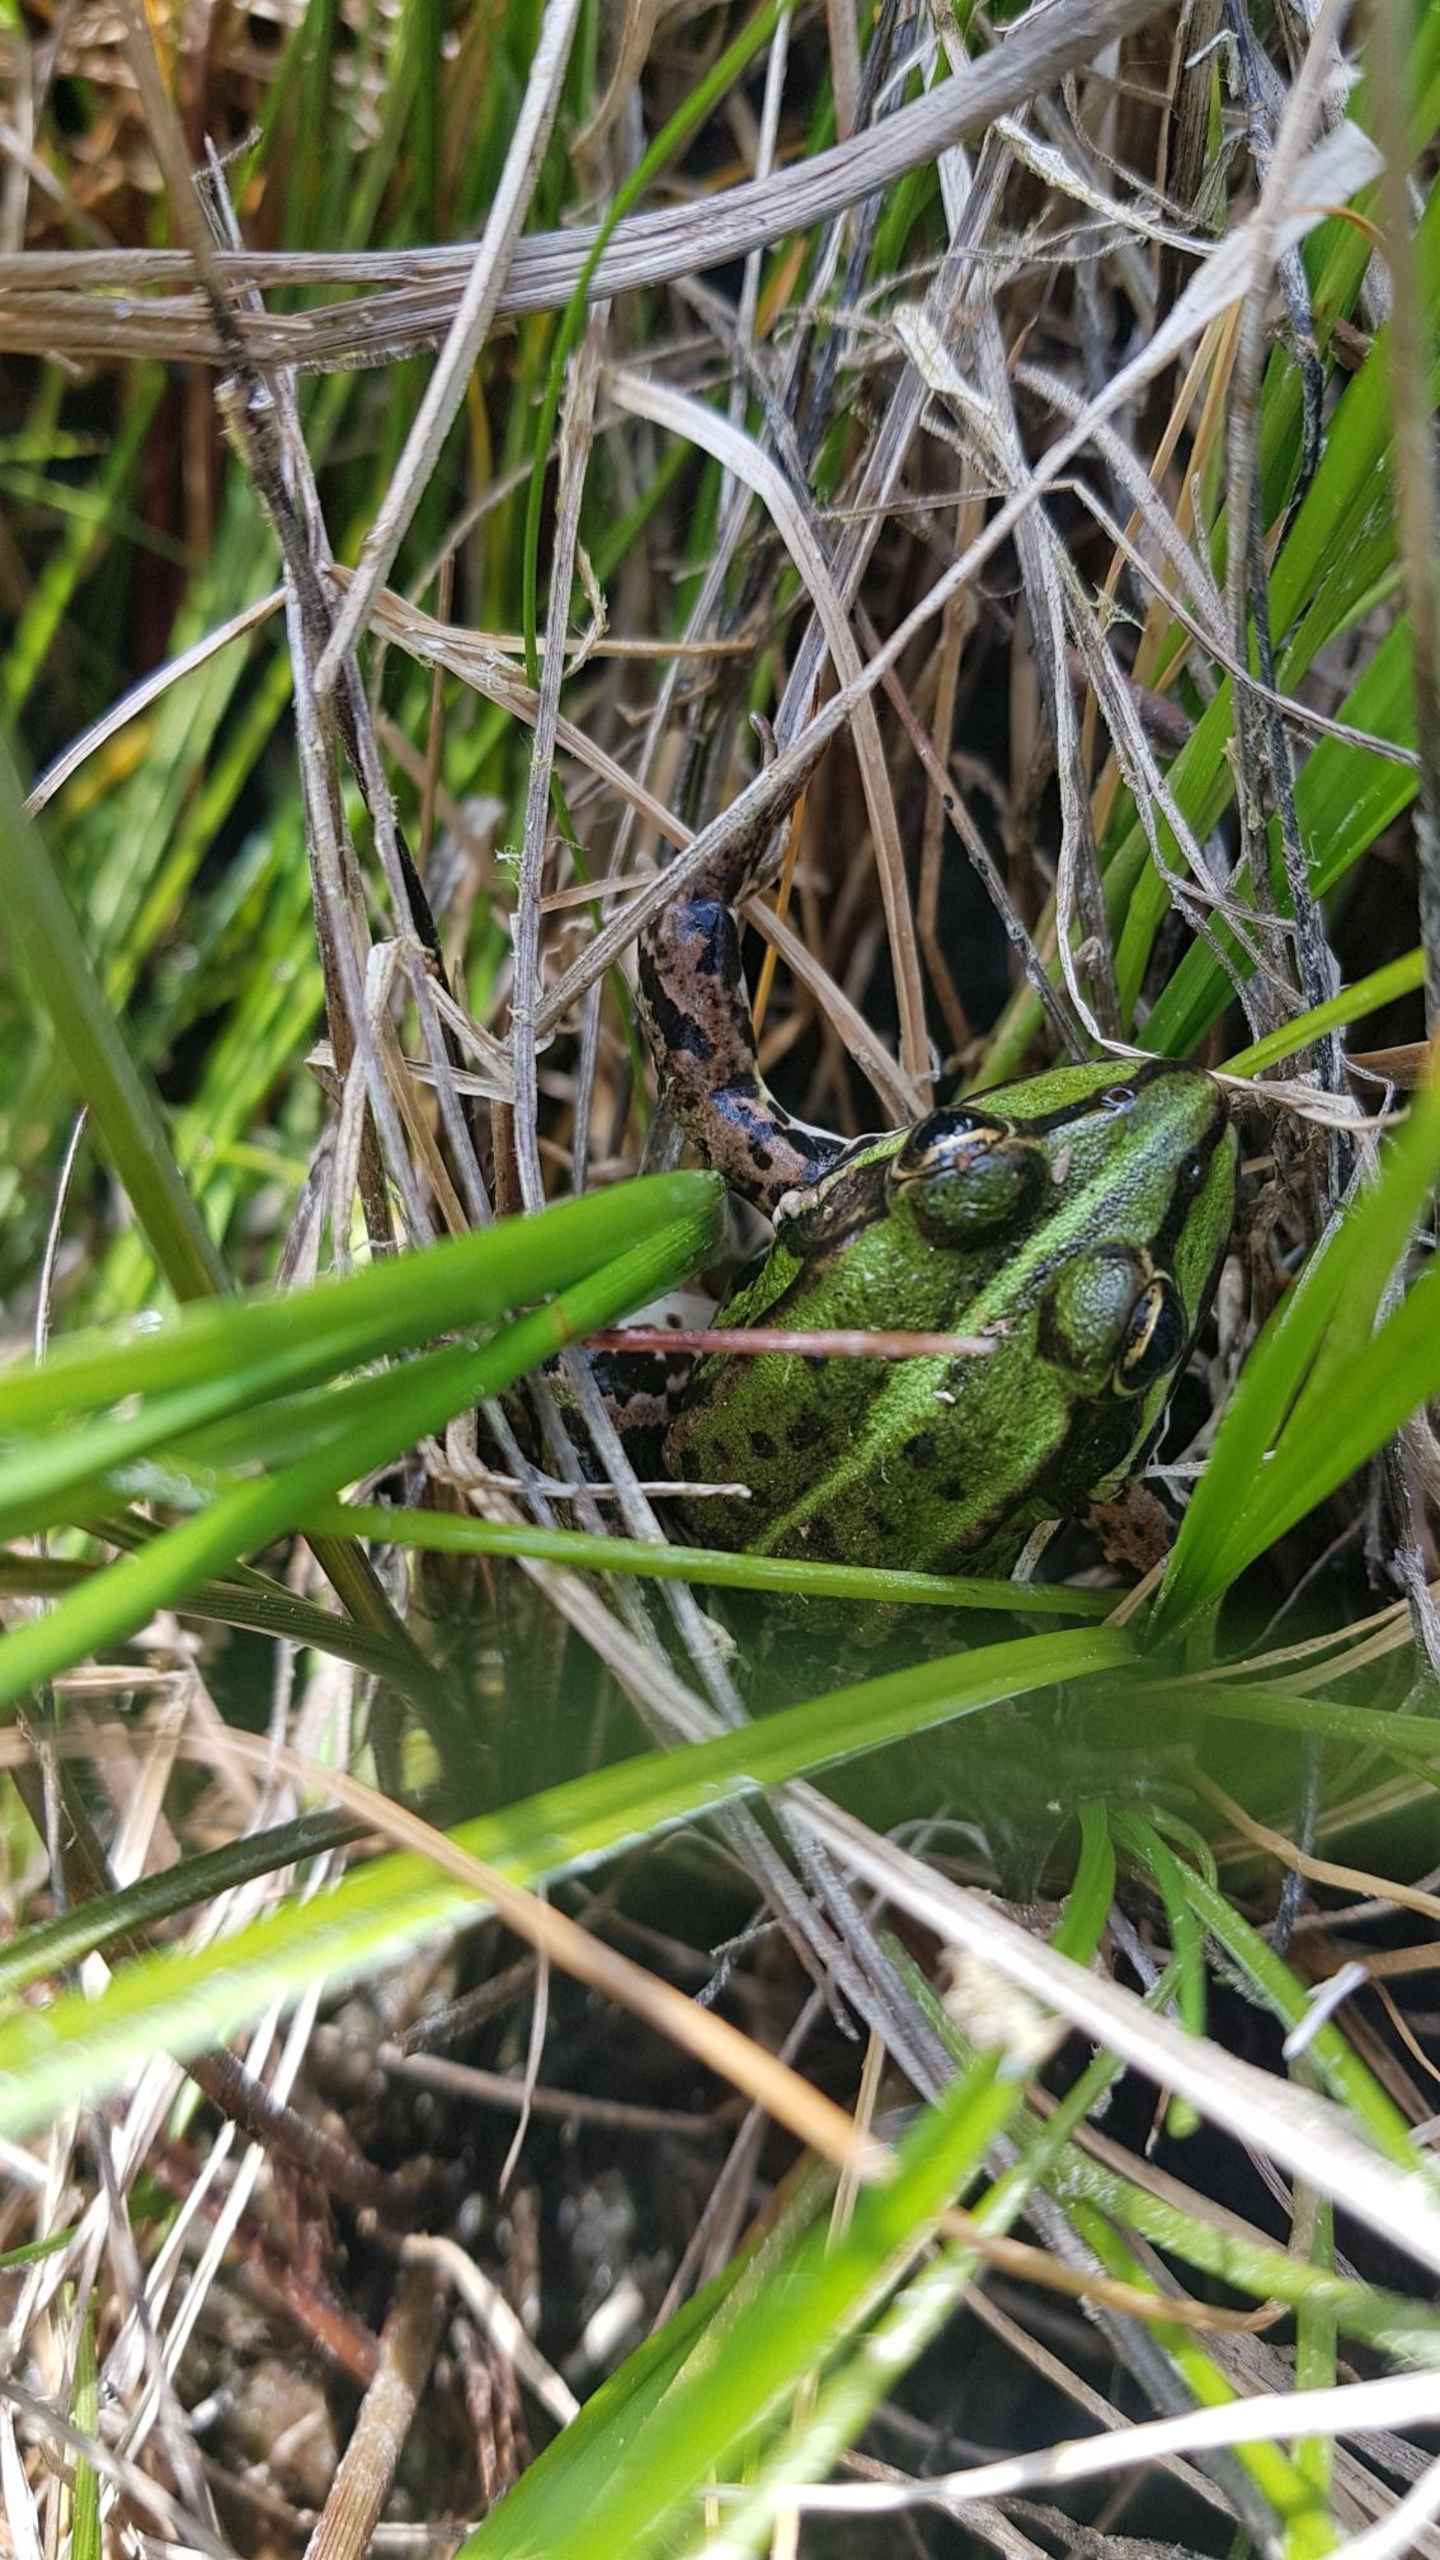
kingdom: Animalia
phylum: Chordata
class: Amphibia
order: Anura
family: Ranidae
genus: Pelophylax
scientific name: Pelophylax lessonae
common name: Grøn frø
